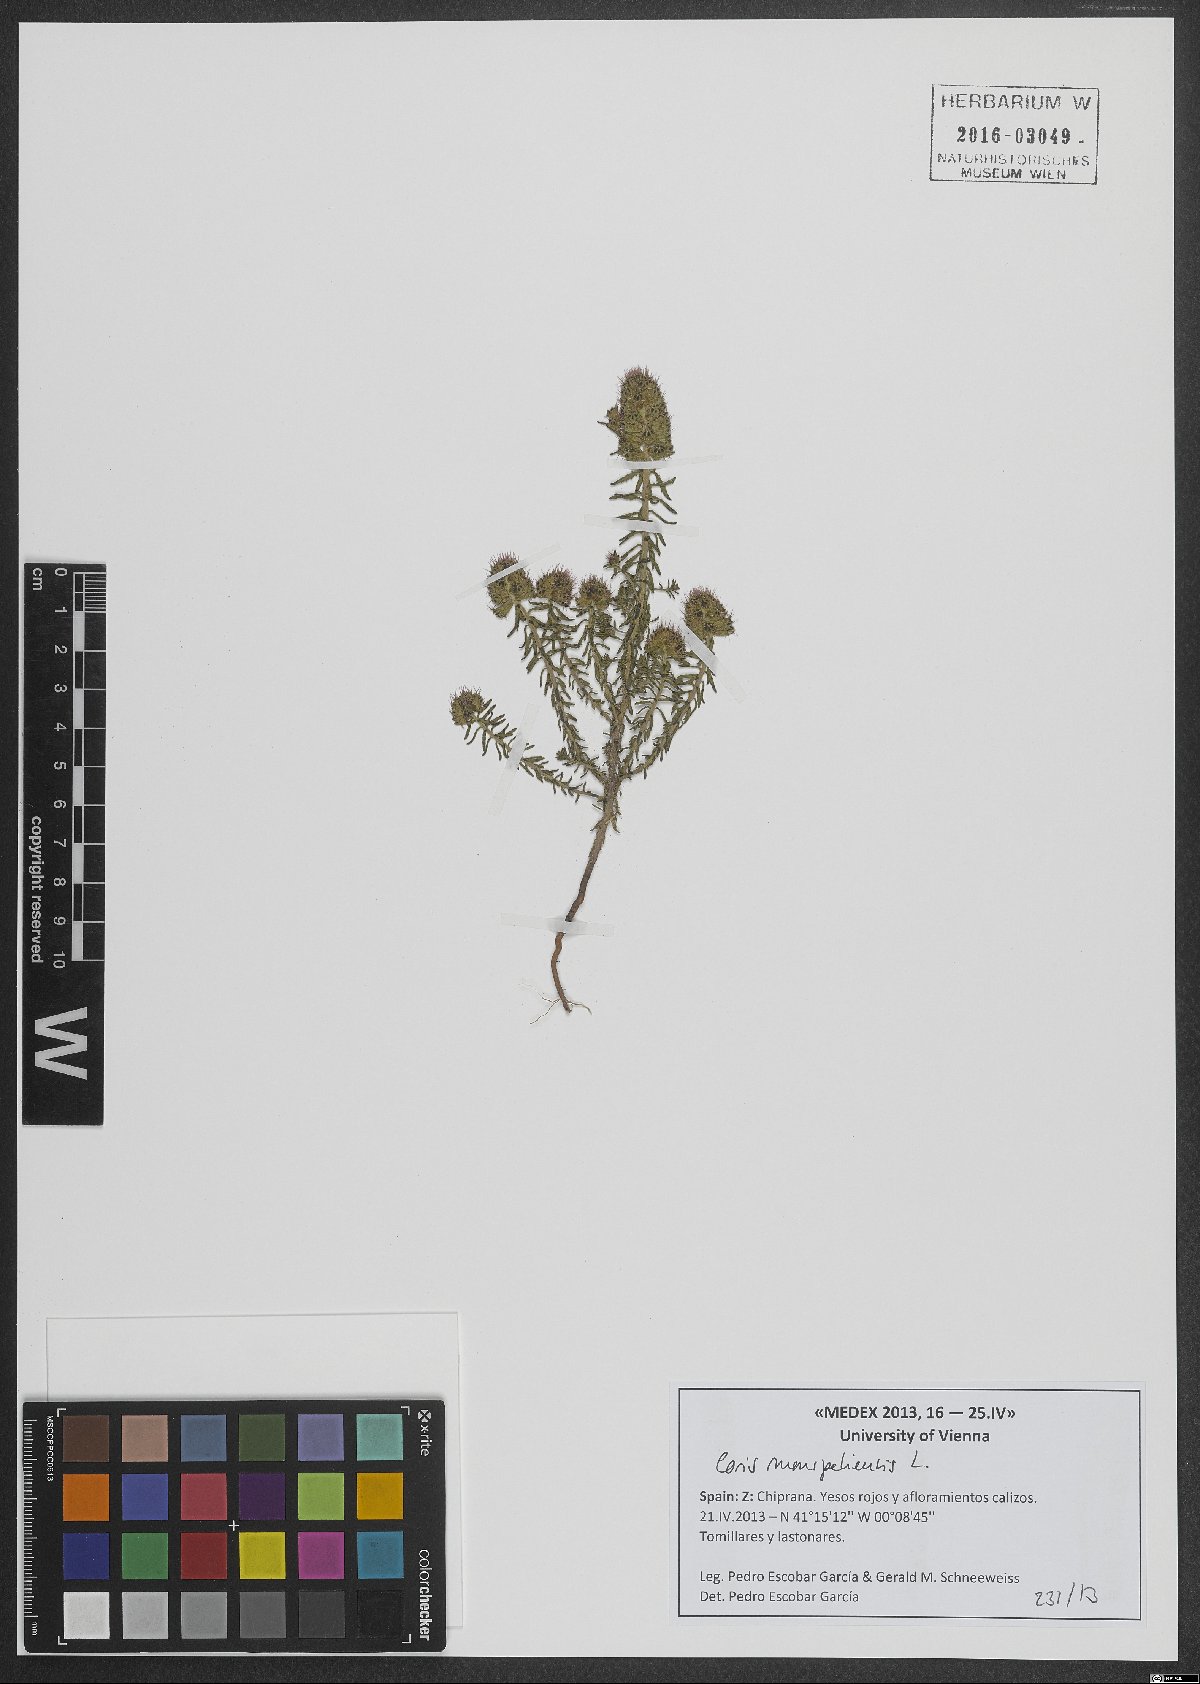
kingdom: Plantae
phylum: Tracheophyta
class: Magnoliopsida
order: Ericales
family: Primulaceae
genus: Coris
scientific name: Coris monspeliensis
